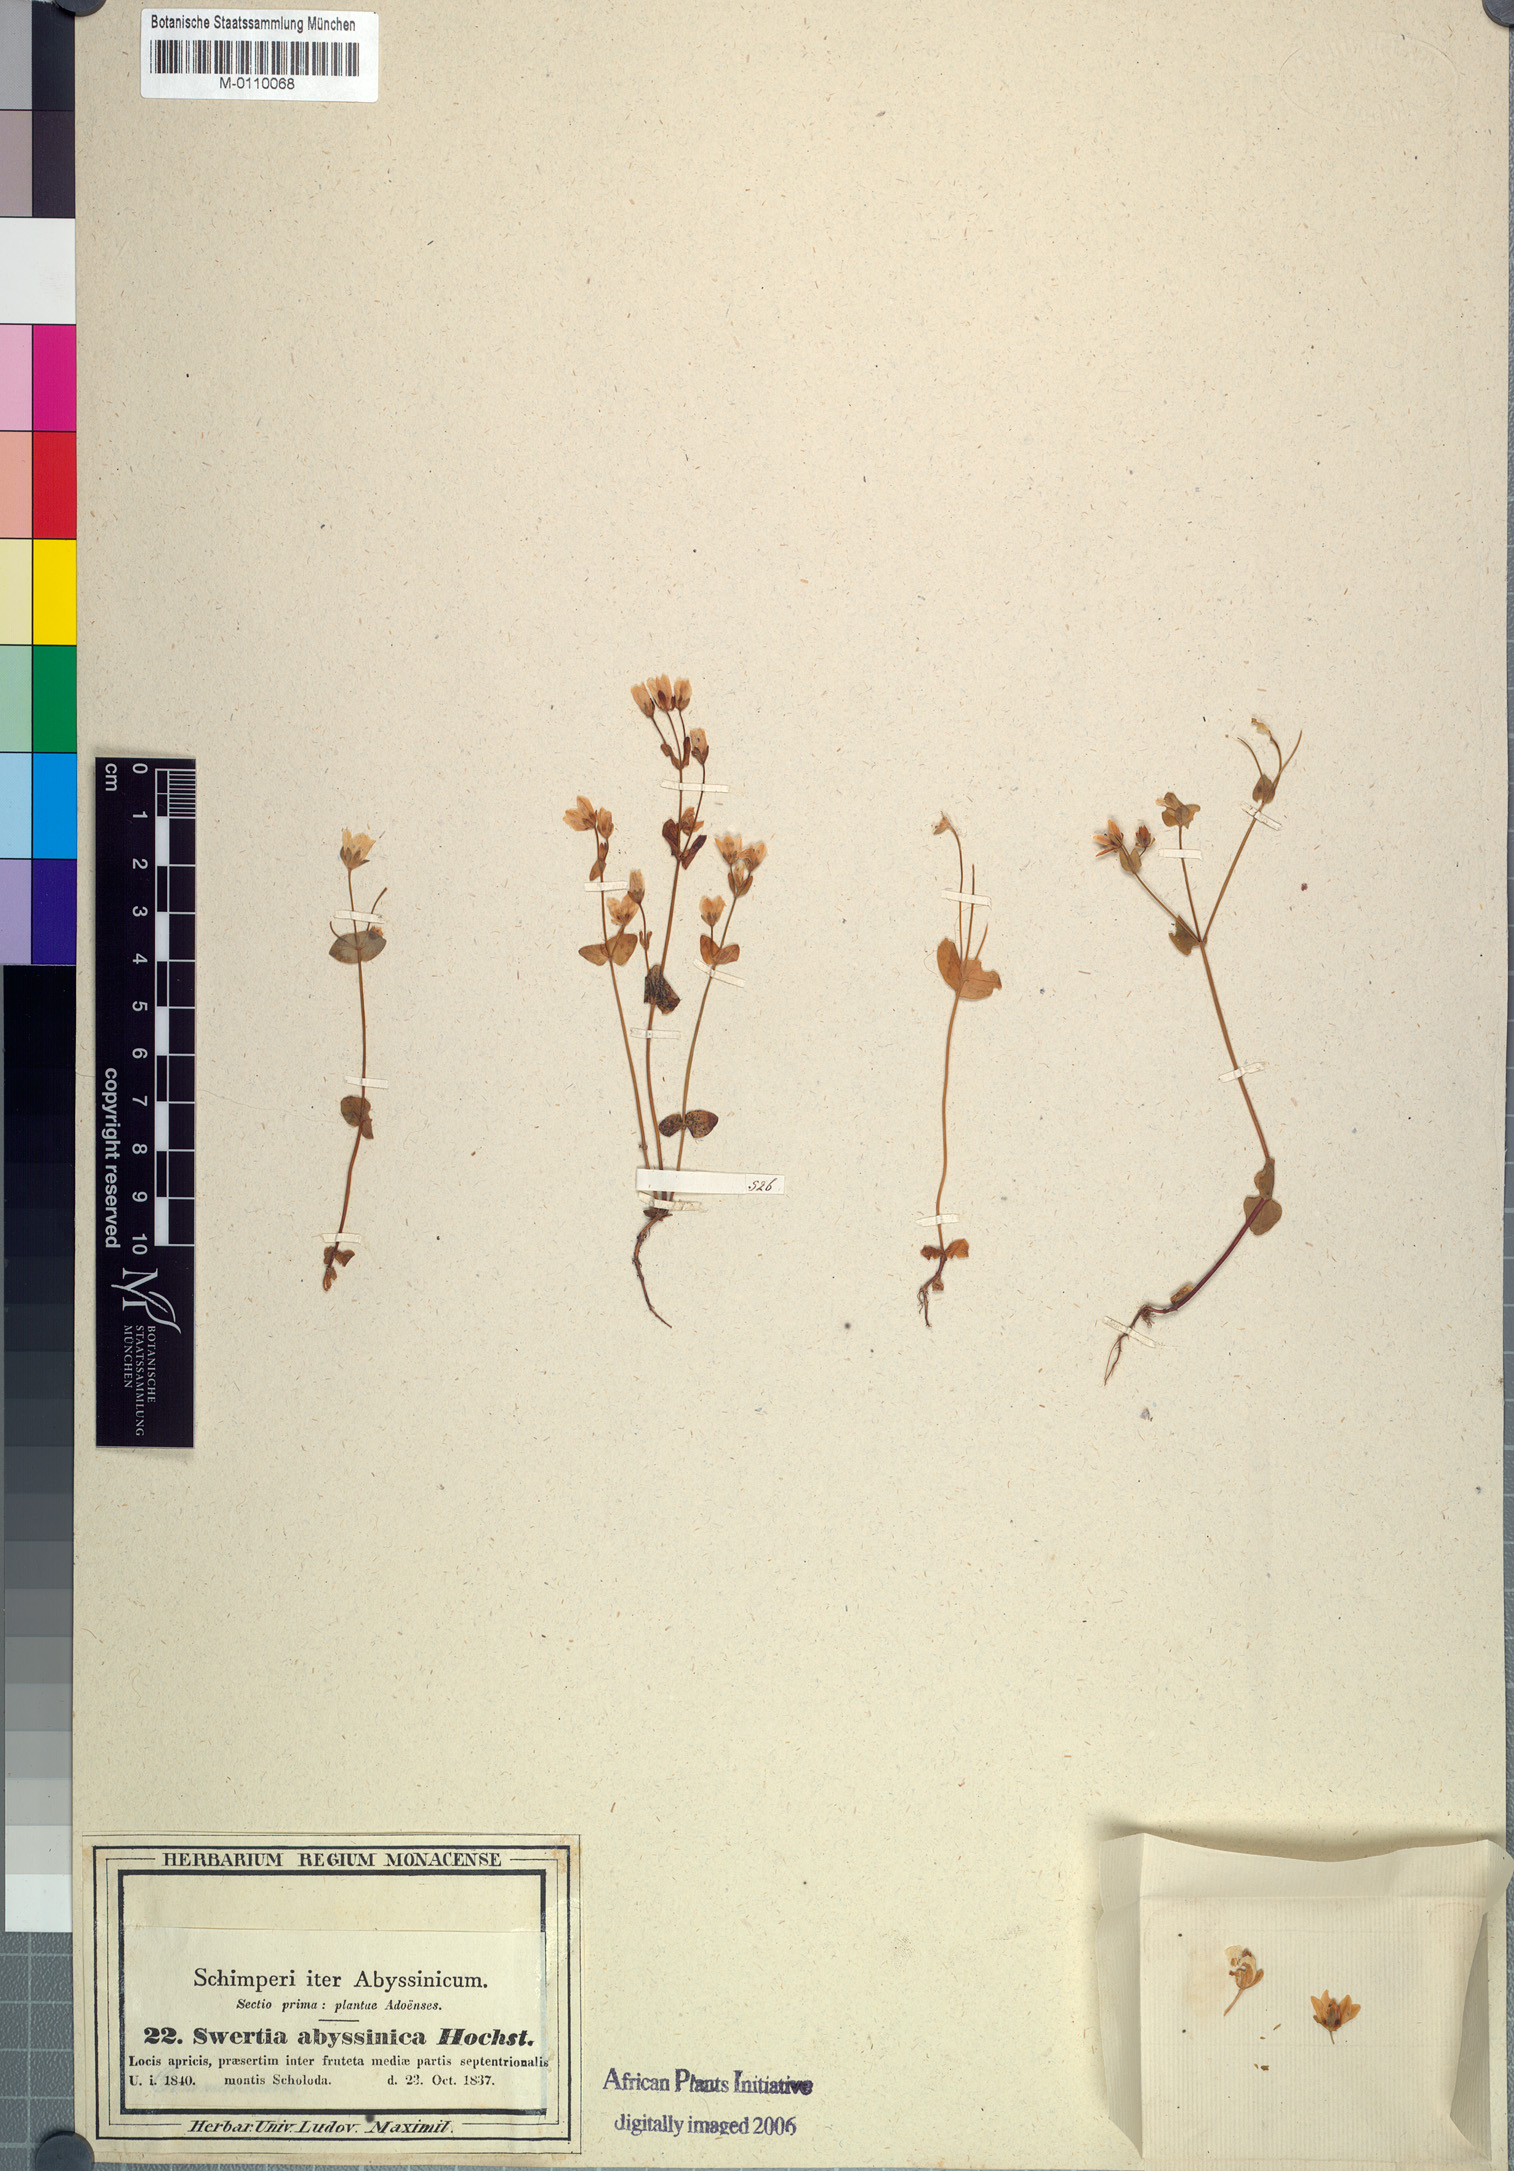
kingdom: Plantae
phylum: Tracheophyta
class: Magnoliopsida
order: Gentianales
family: Gentianaceae
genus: Swertia
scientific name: Swertia abyssinica
